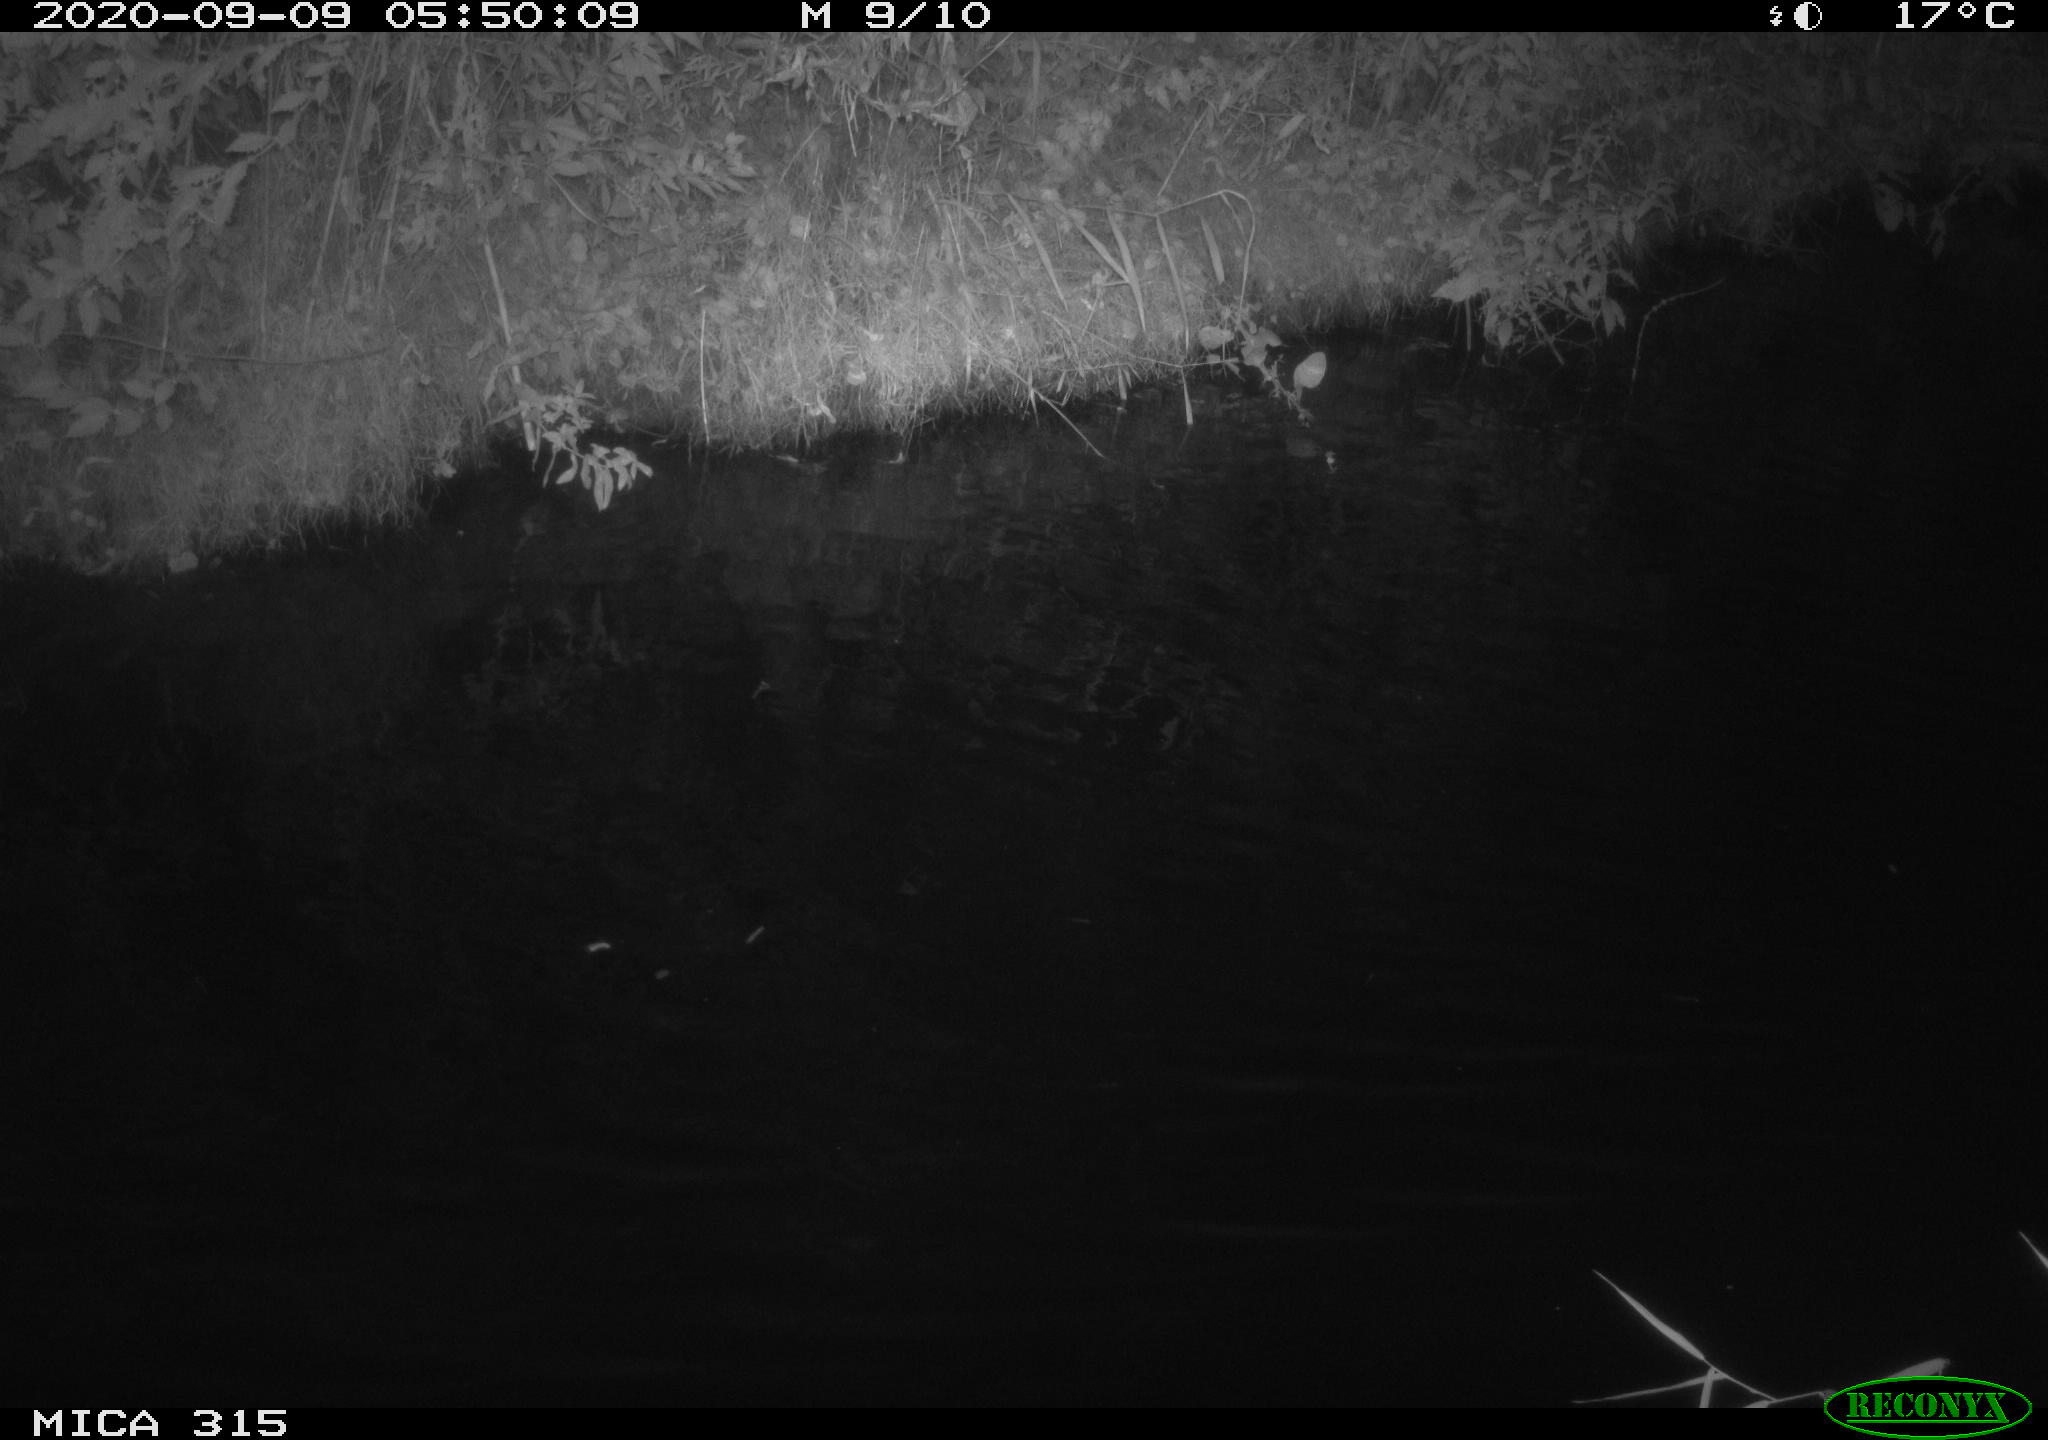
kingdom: Animalia
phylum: Chordata
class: Aves
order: Anseriformes
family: Anatidae
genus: Anas
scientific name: Anas platyrhynchos
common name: Mallard
